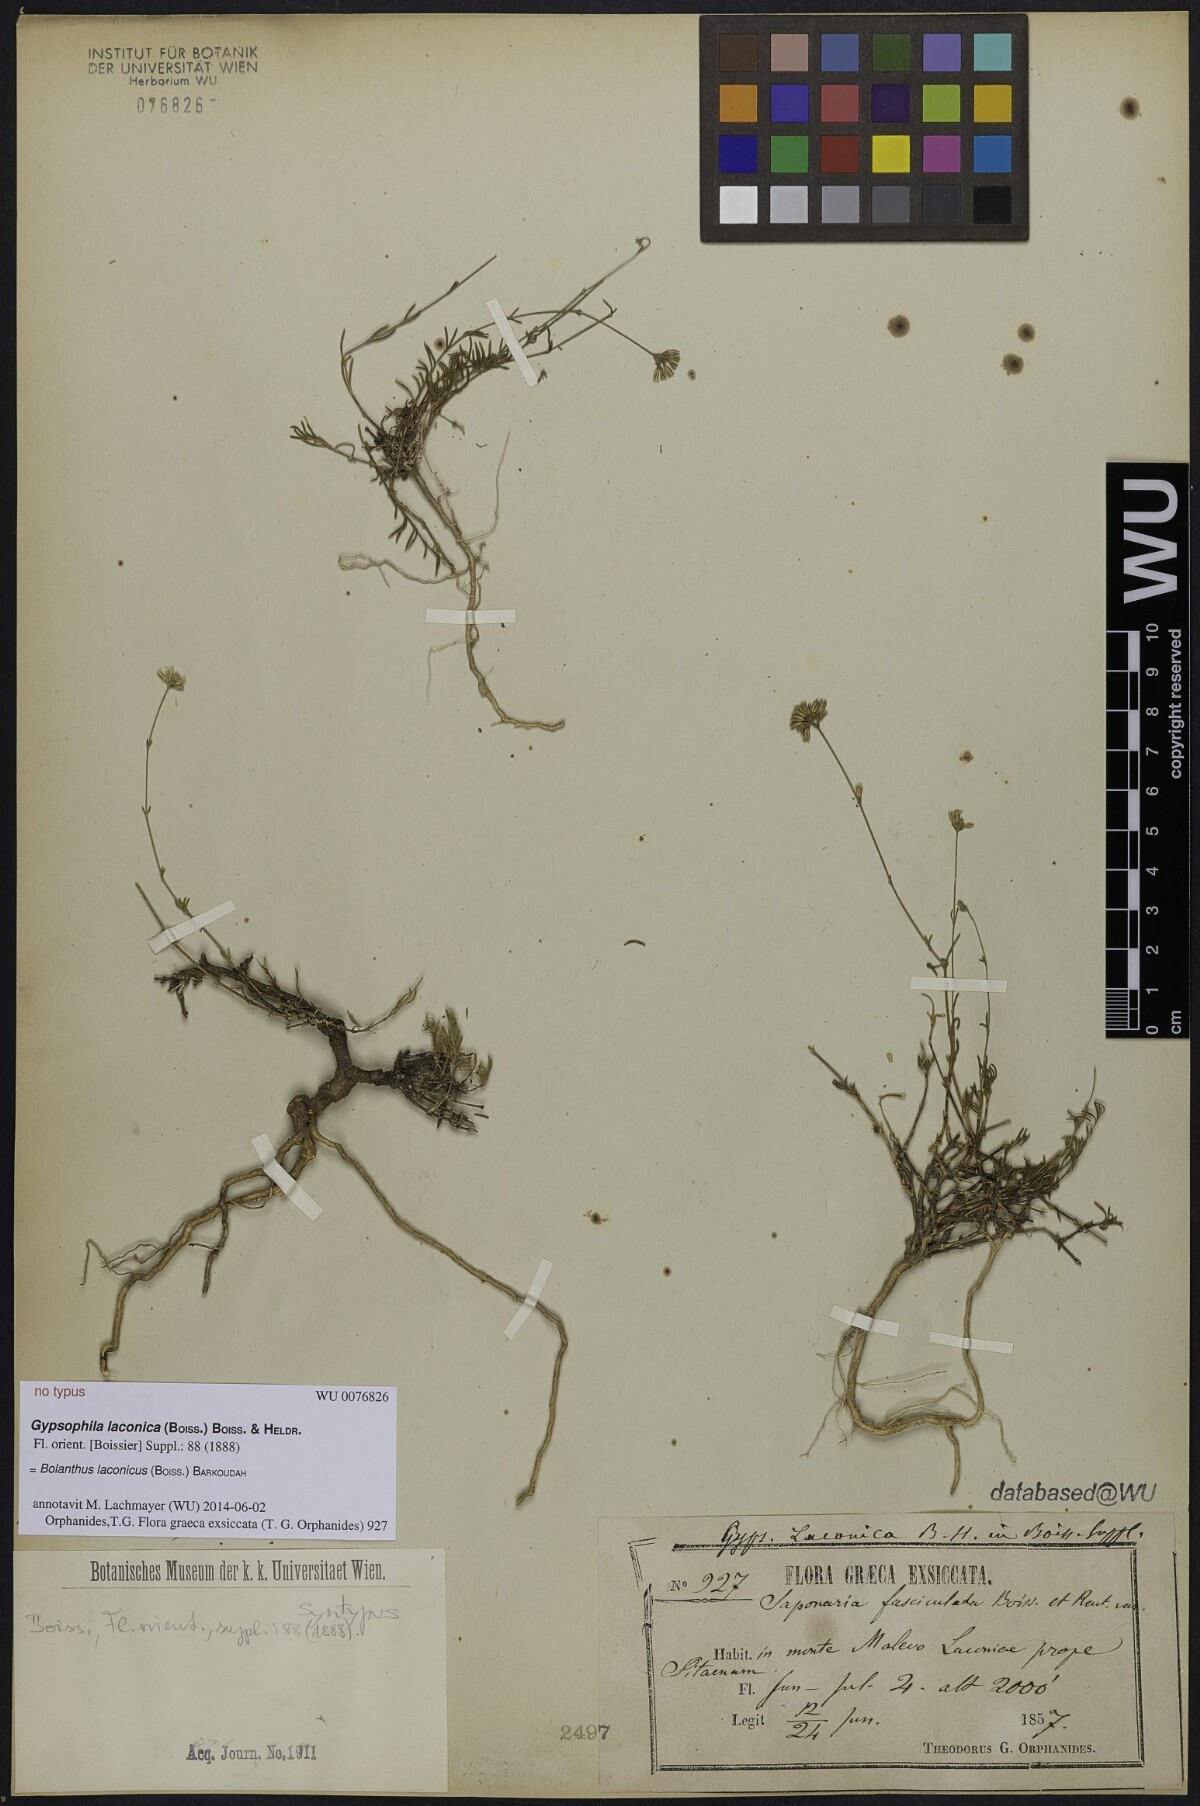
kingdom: Plantae
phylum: Tracheophyta
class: Magnoliopsida
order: Caryophyllales
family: Caryophyllaceae
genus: Graecobolanthus
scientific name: Graecobolanthus laconicus
